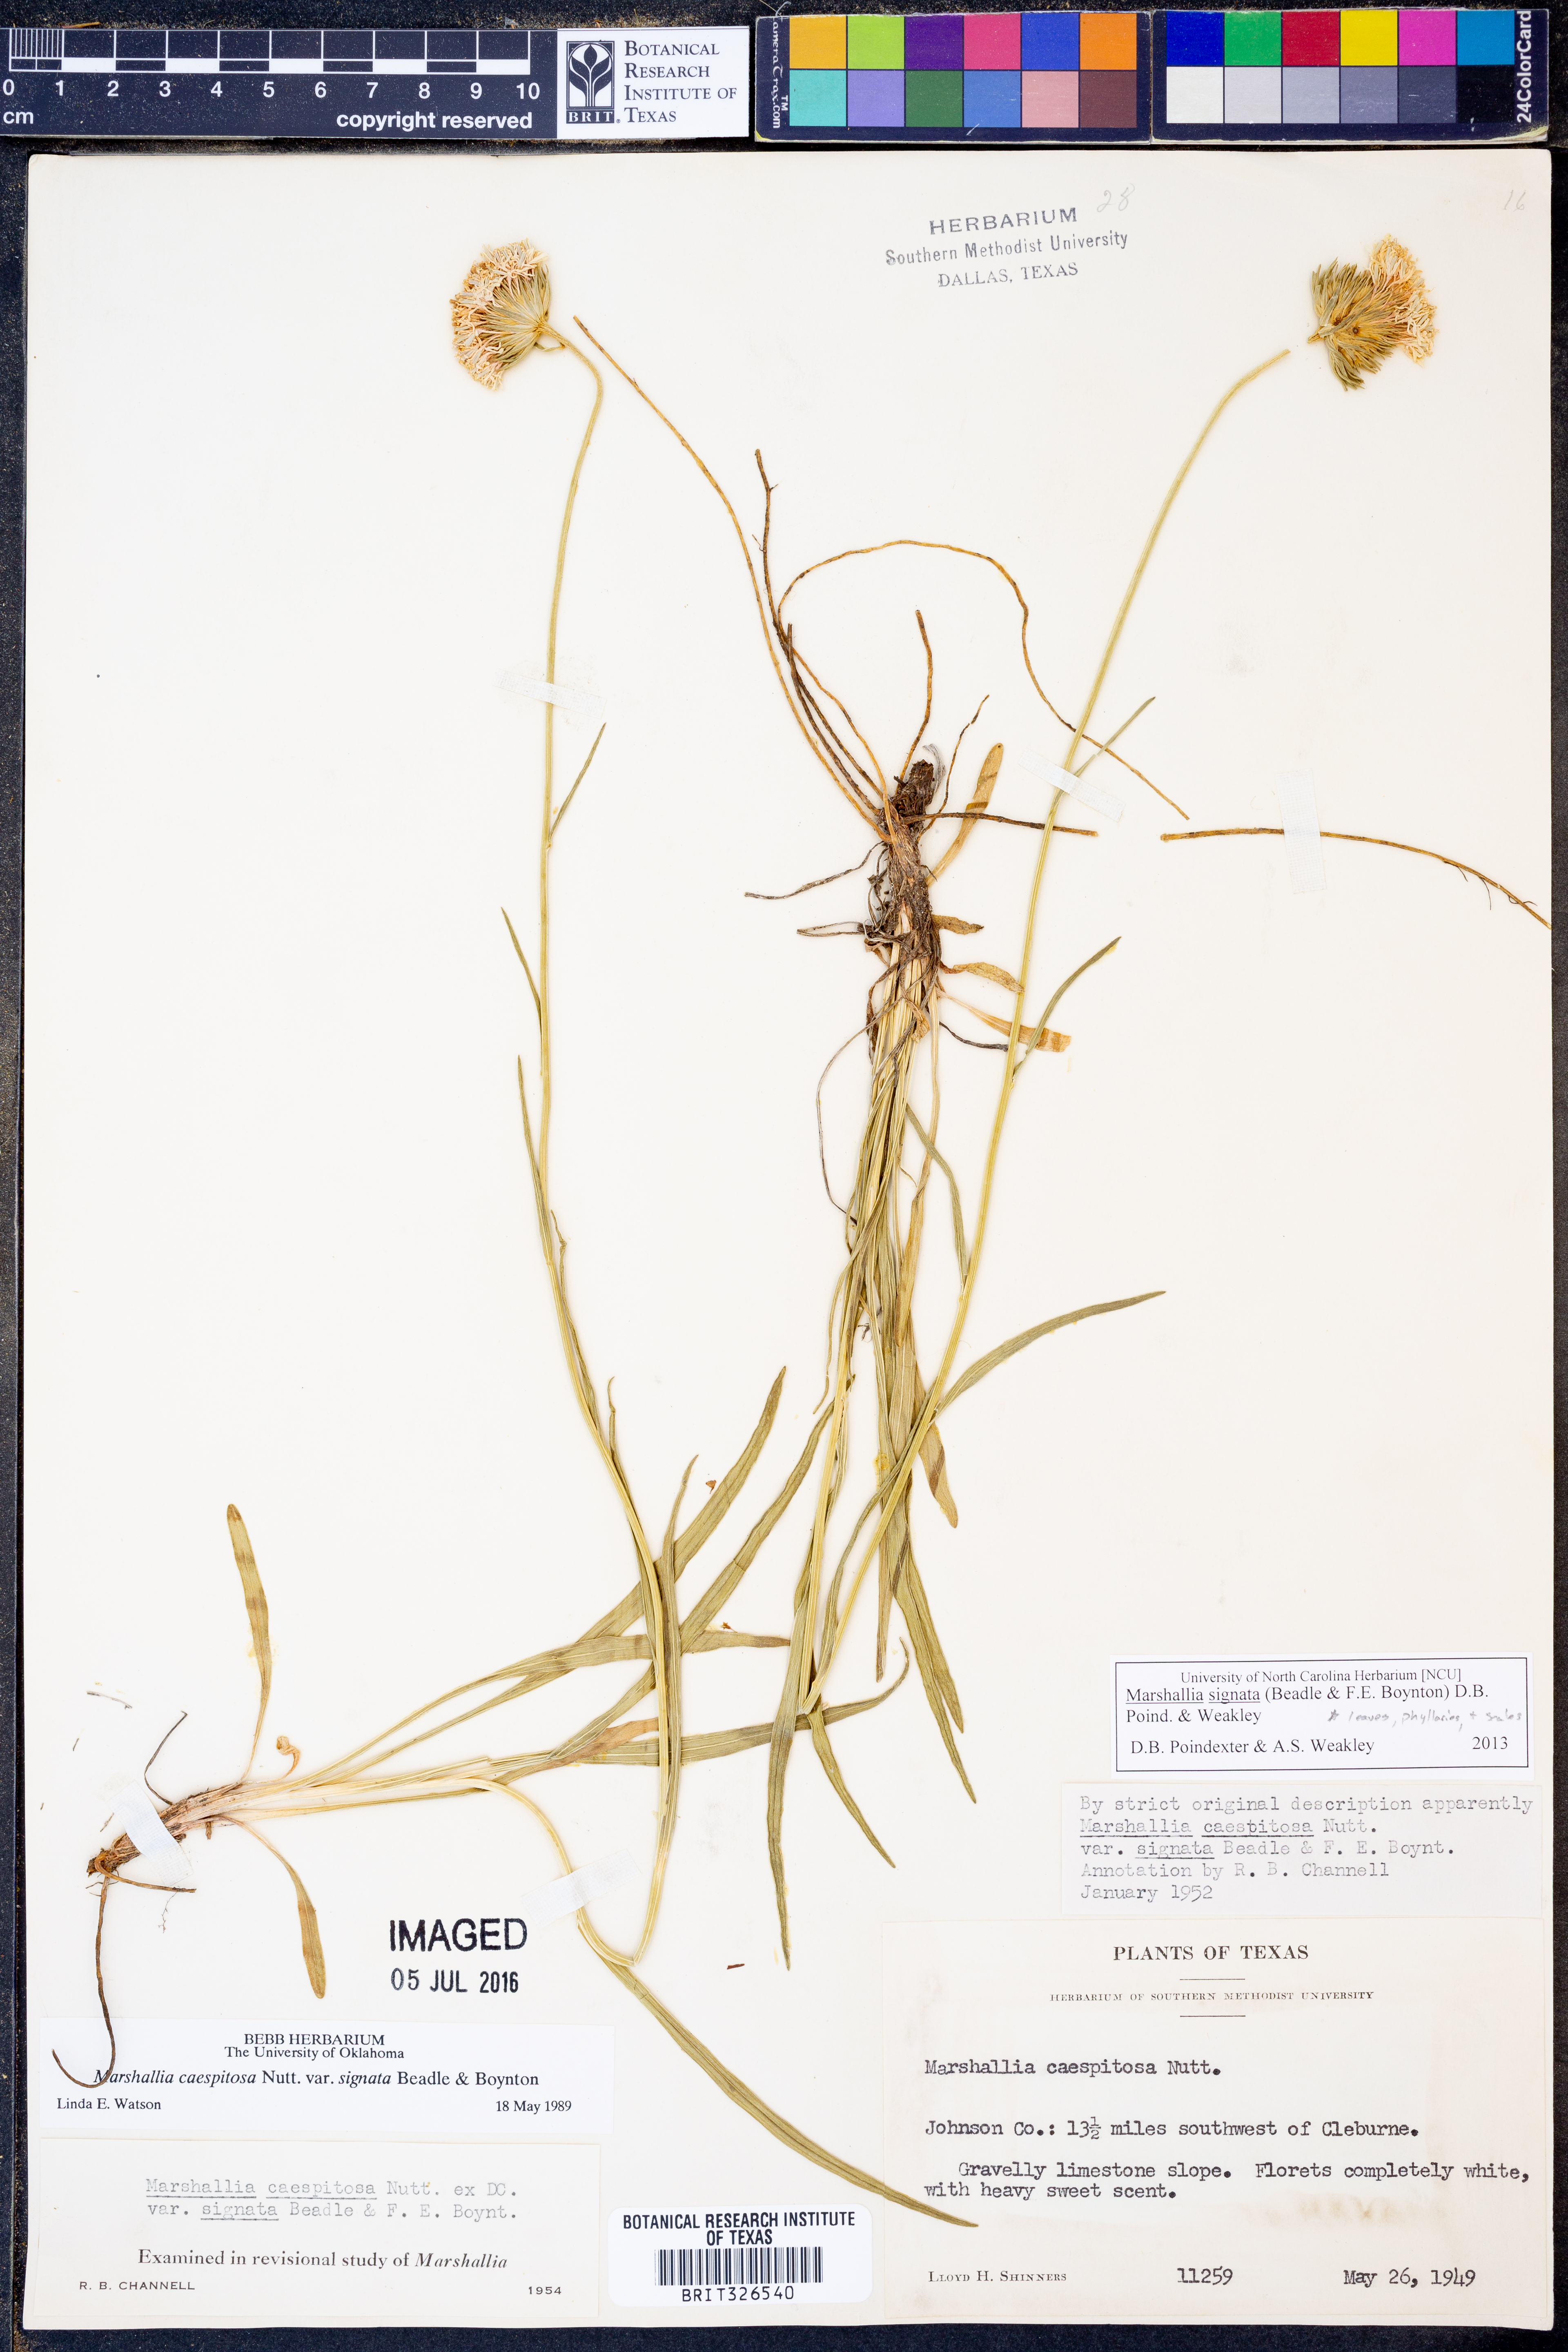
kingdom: Plantae
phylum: Tracheophyta
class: Magnoliopsida
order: Asterales
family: Asteraceae
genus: Marshallia
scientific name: Marshallia
